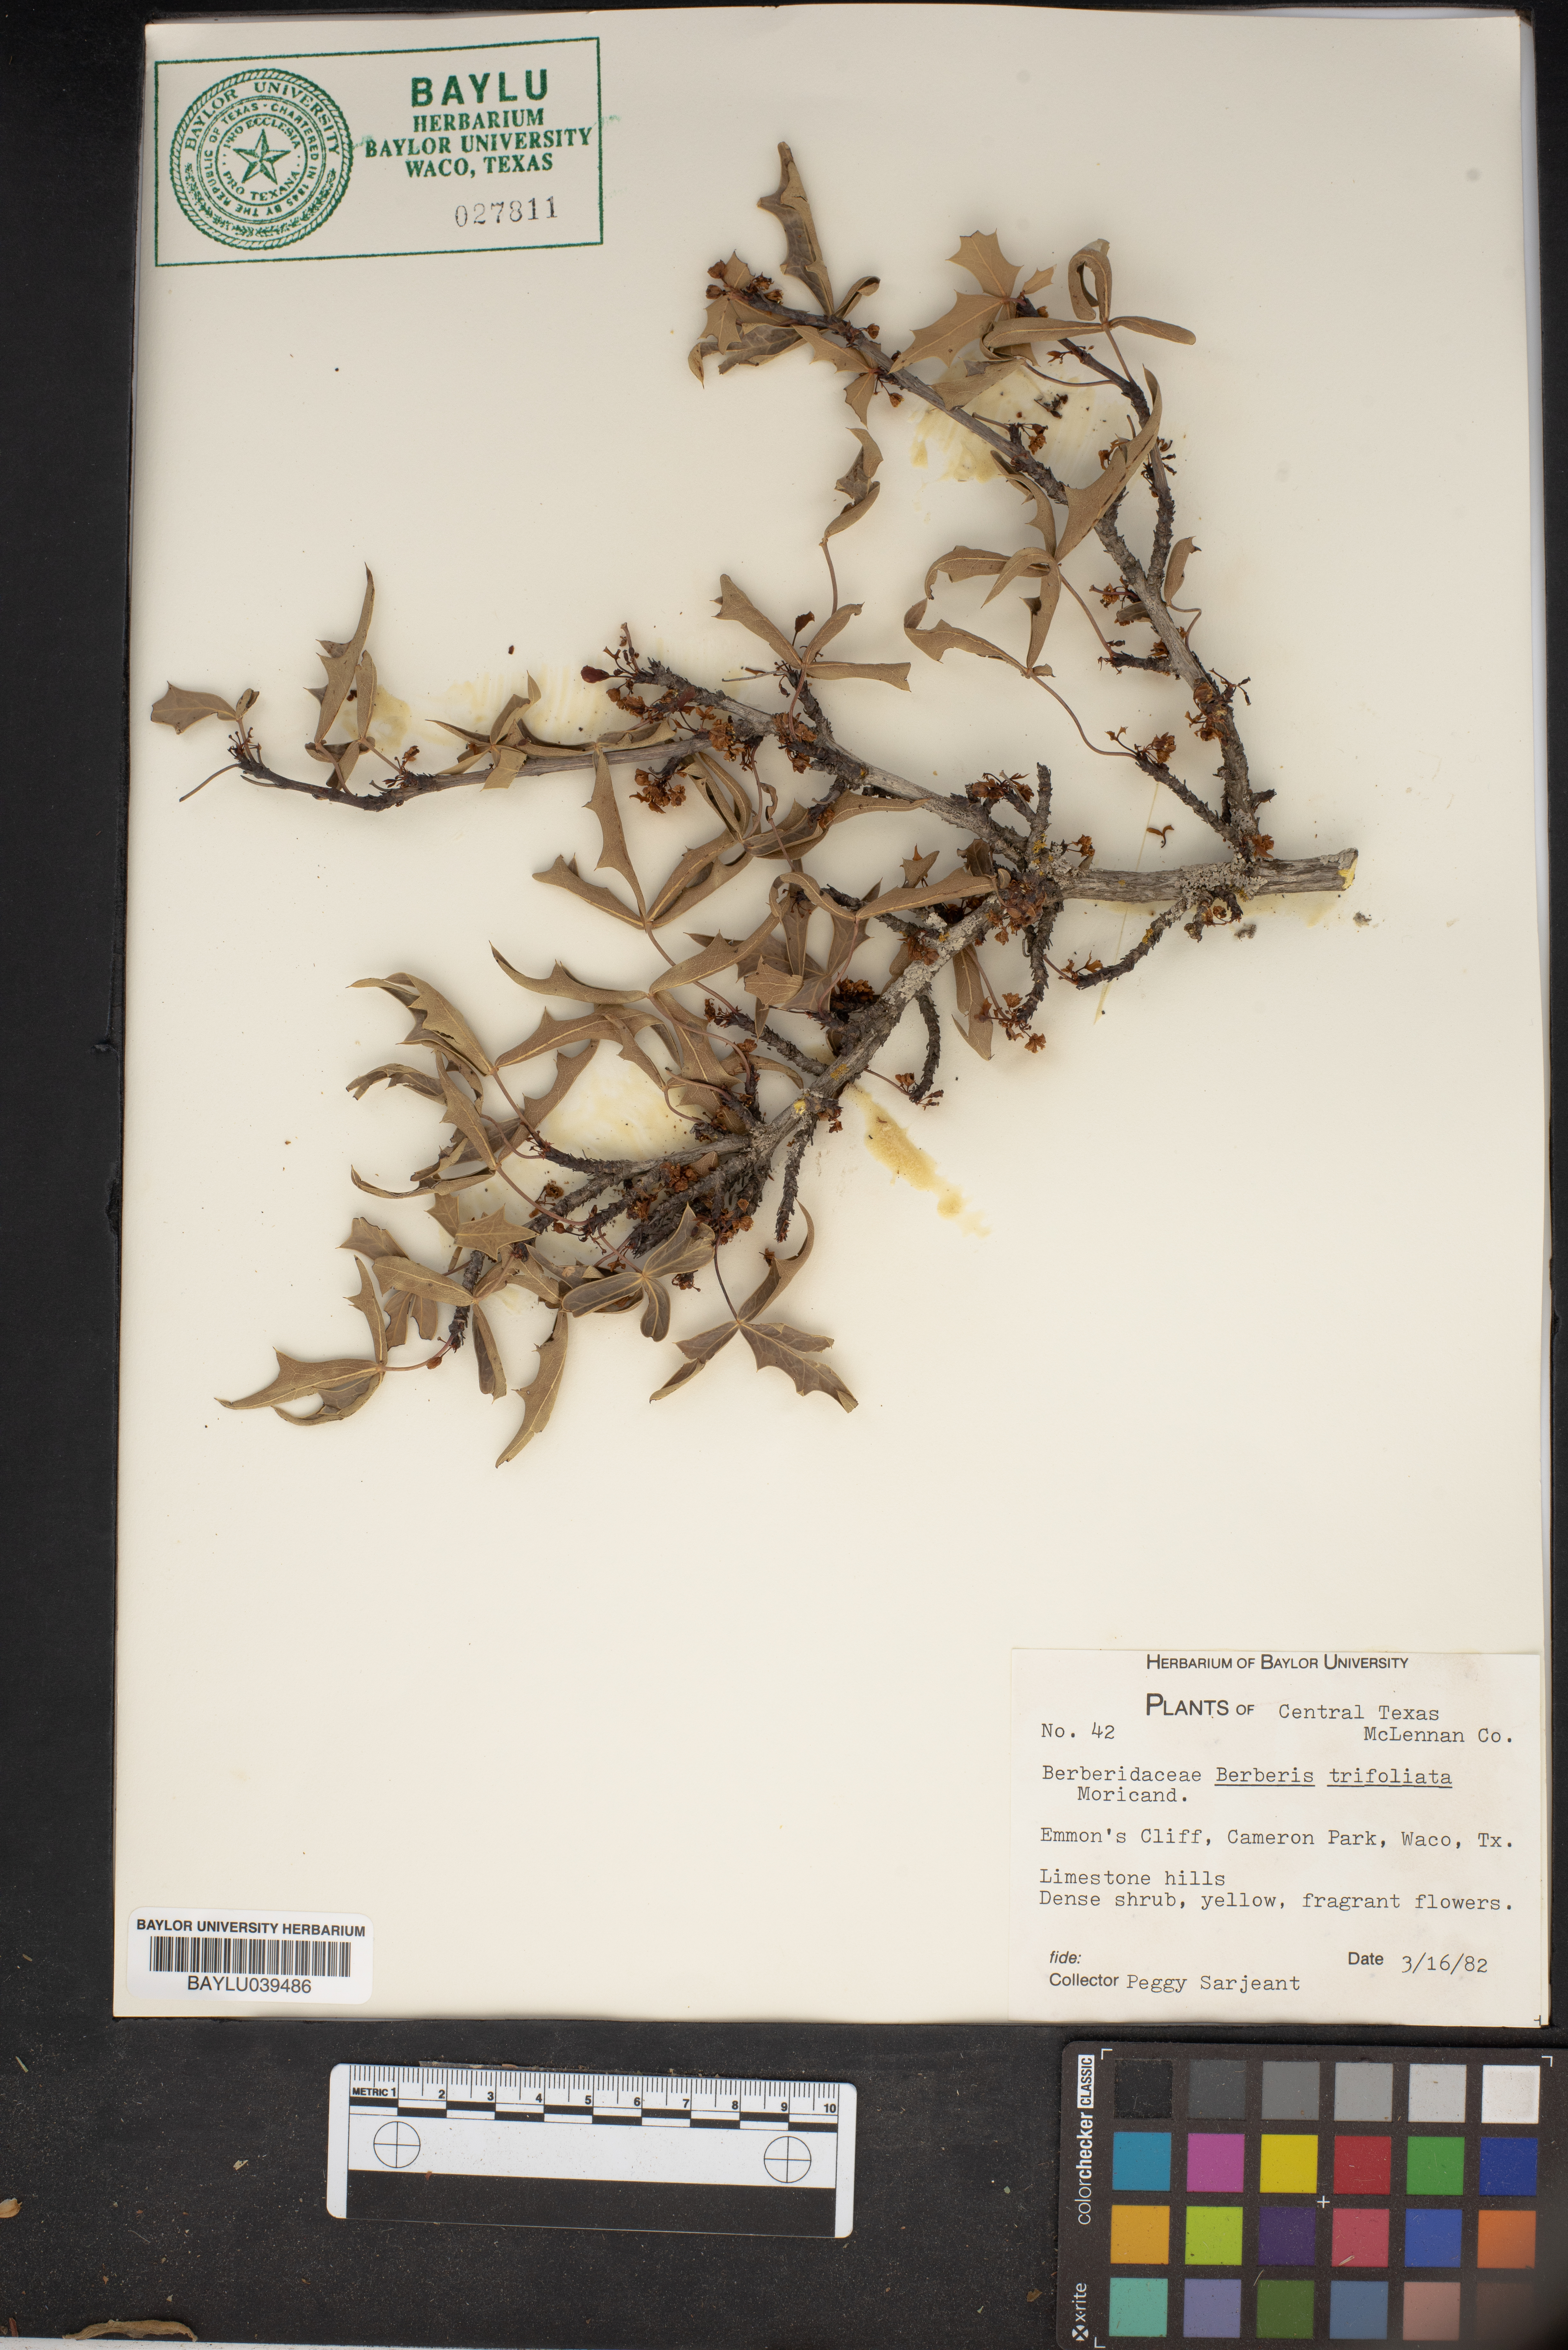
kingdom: Plantae
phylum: Tracheophyta
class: Magnoliopsida
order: Ranunculales
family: Berberidaceae
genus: Alloberberis
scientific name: Alloberberis fremontii
